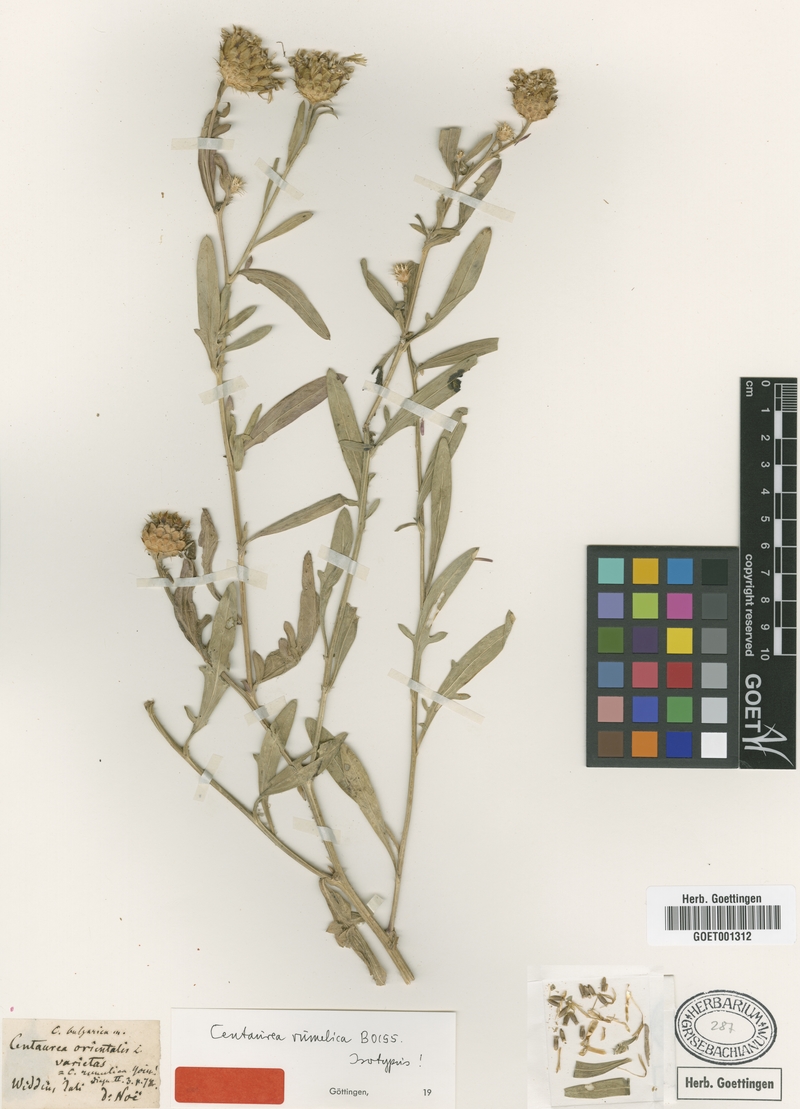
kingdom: Plantae
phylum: Tracheophyta
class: Magnoliopsida
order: Asterales
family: Asteraceae
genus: Centaurea
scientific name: Centaurea rumelica
